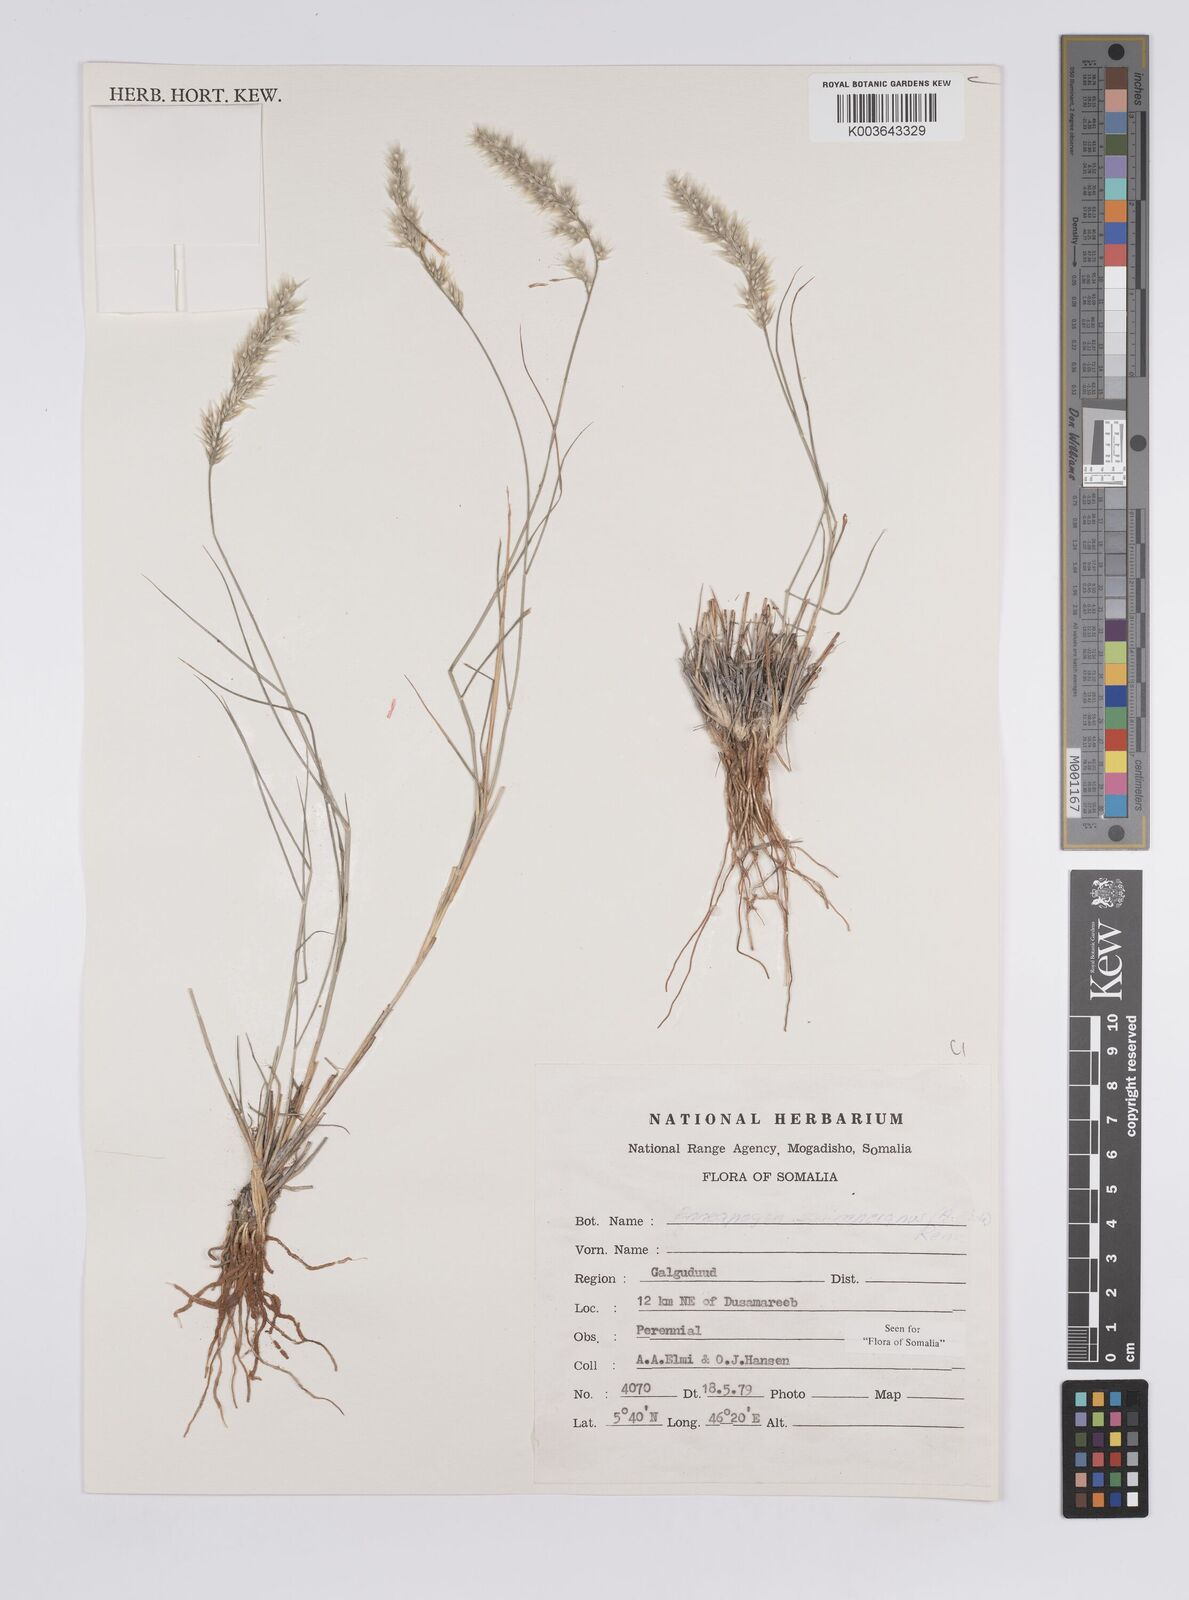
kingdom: Plantae
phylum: Tracheophyta
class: Liliopsida
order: Poales
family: Poaceae
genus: Enneapogon
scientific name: Enneapogon persicus
